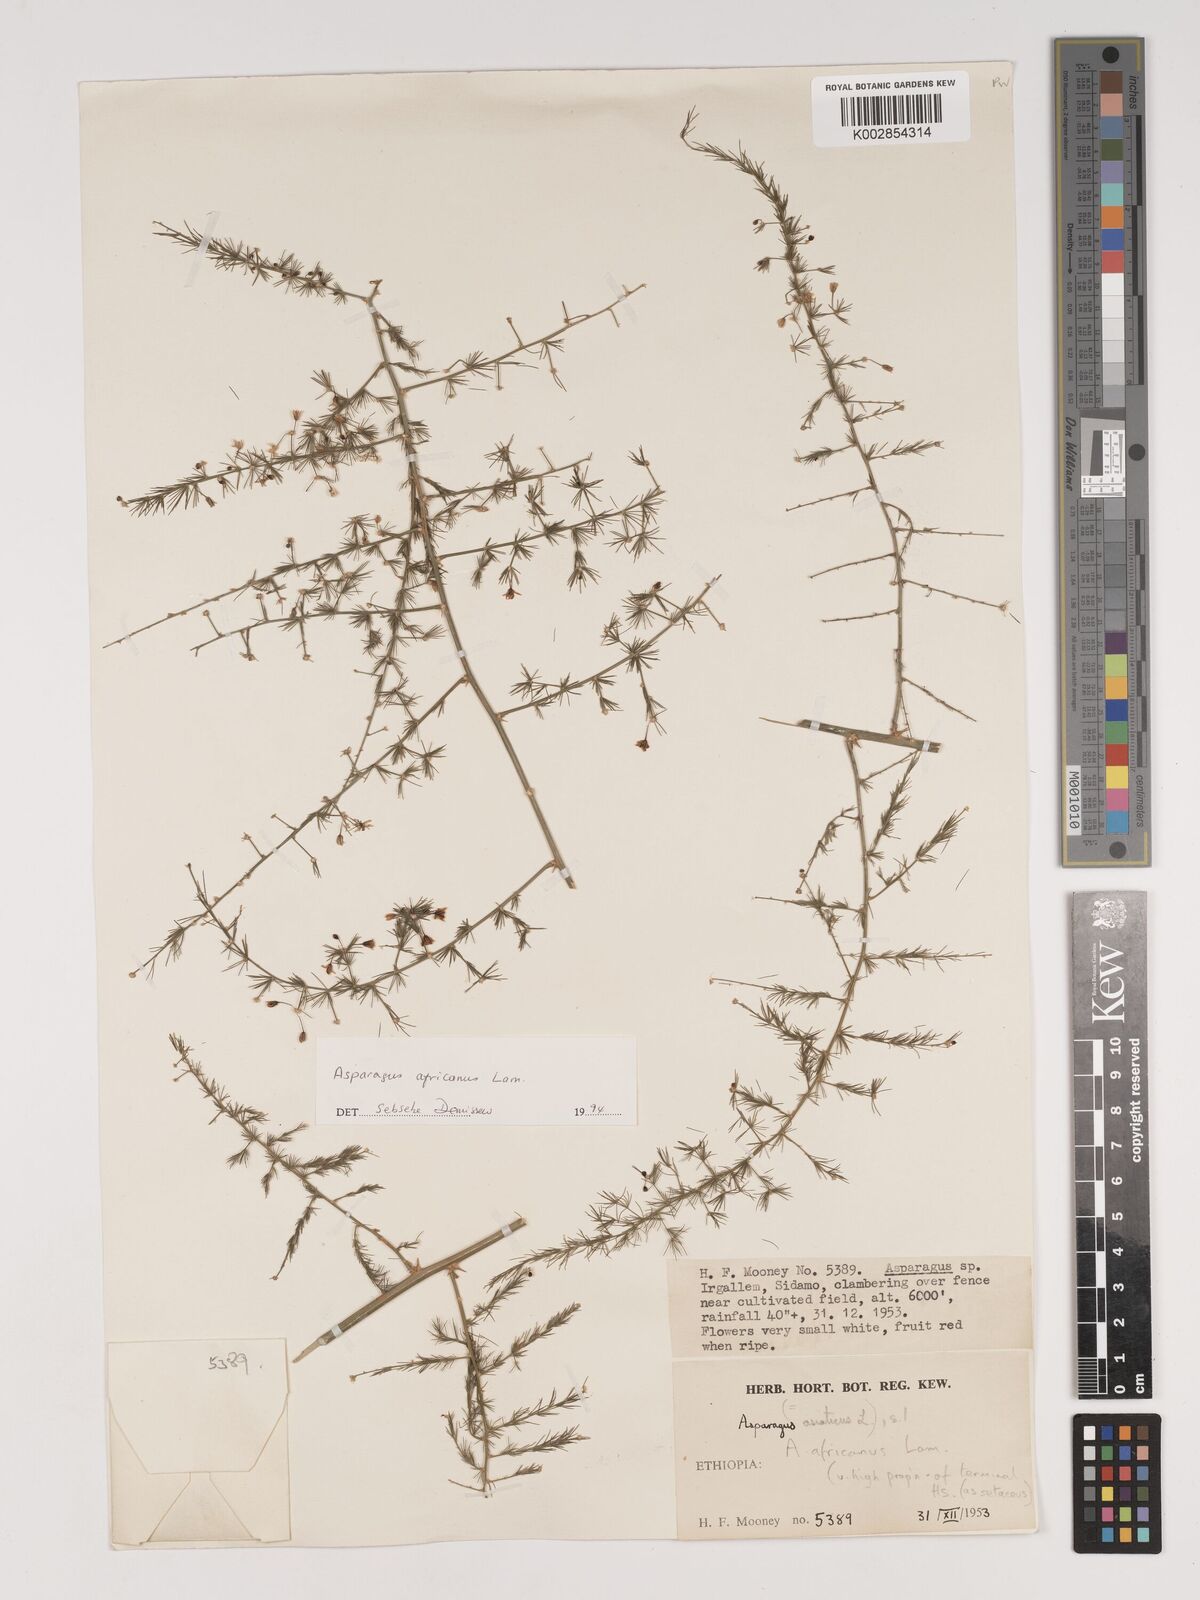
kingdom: Plantae
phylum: Tracheophyta
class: Liliopsida
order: Asparagales
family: Asparagaceae
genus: Asparagus
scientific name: Asparagus africanus
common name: Asparagus-fern
